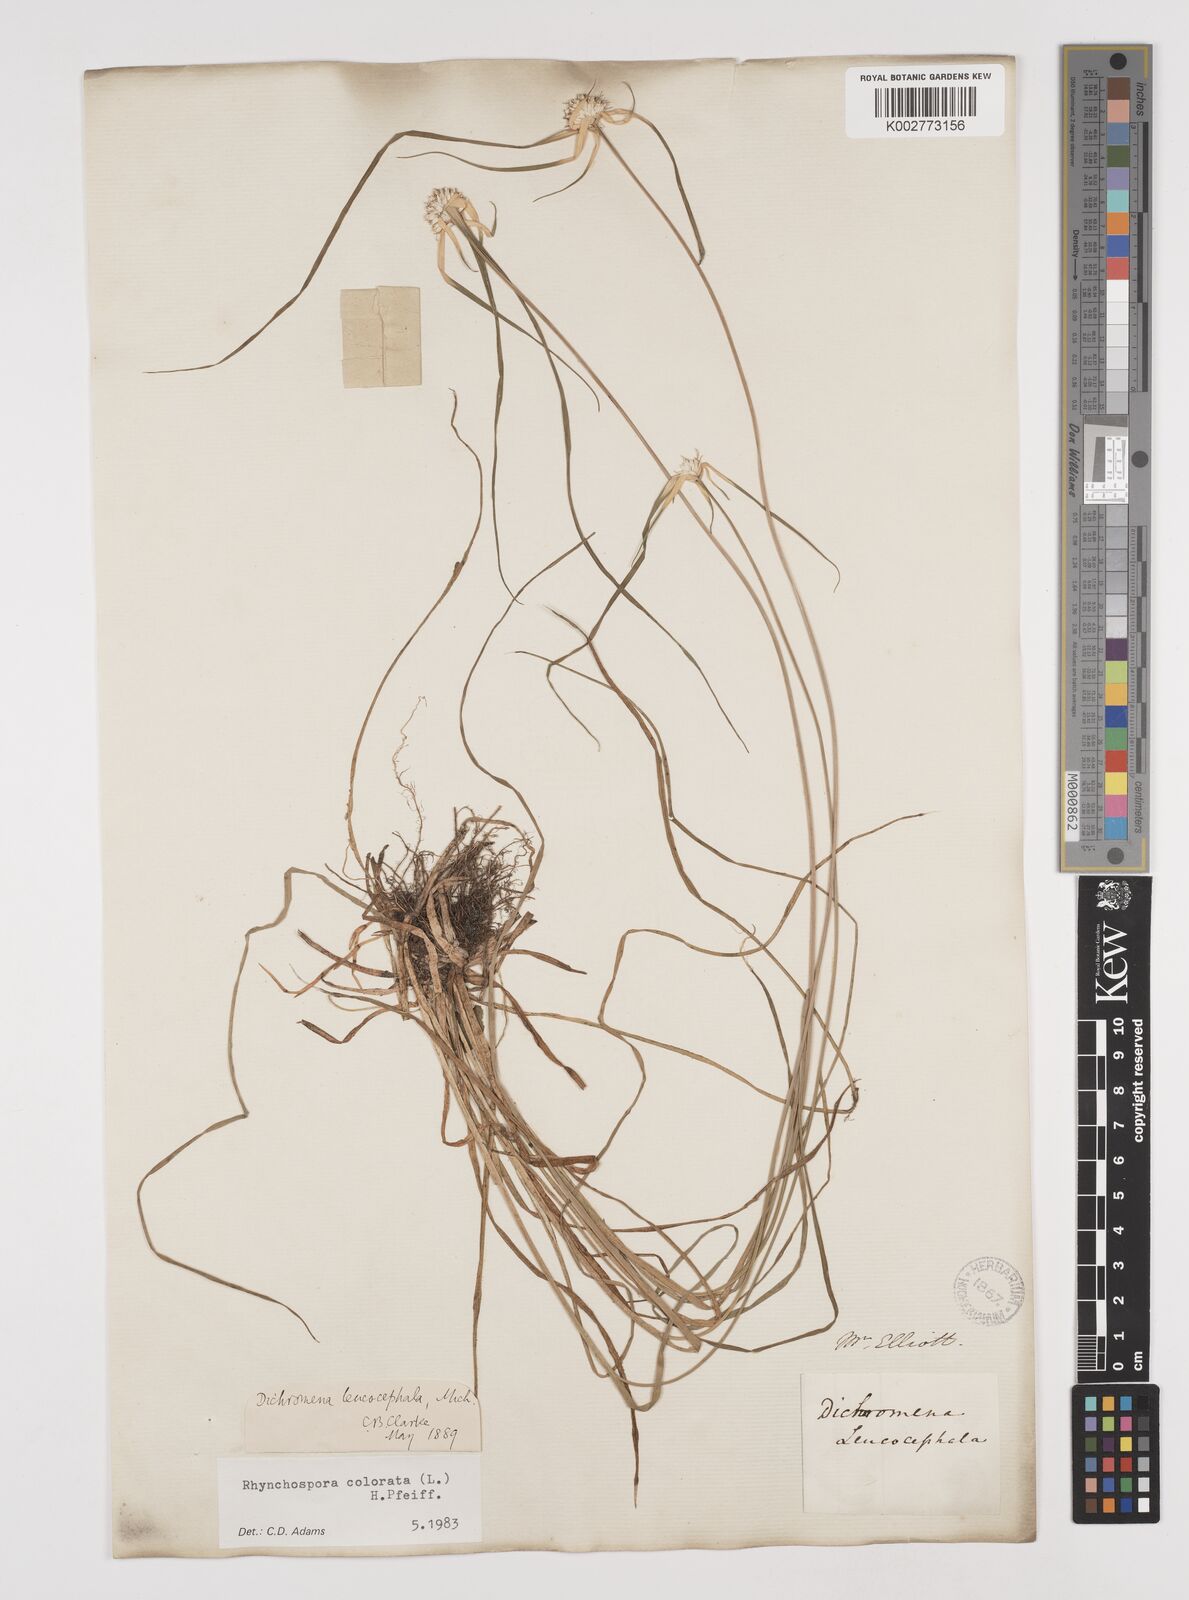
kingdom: Plantae
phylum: Tracheophyta
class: Liliopsida
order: Poales
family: Cyperaceae
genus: Rhynchospora
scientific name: Rhynchospora colorata
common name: Star sedge
